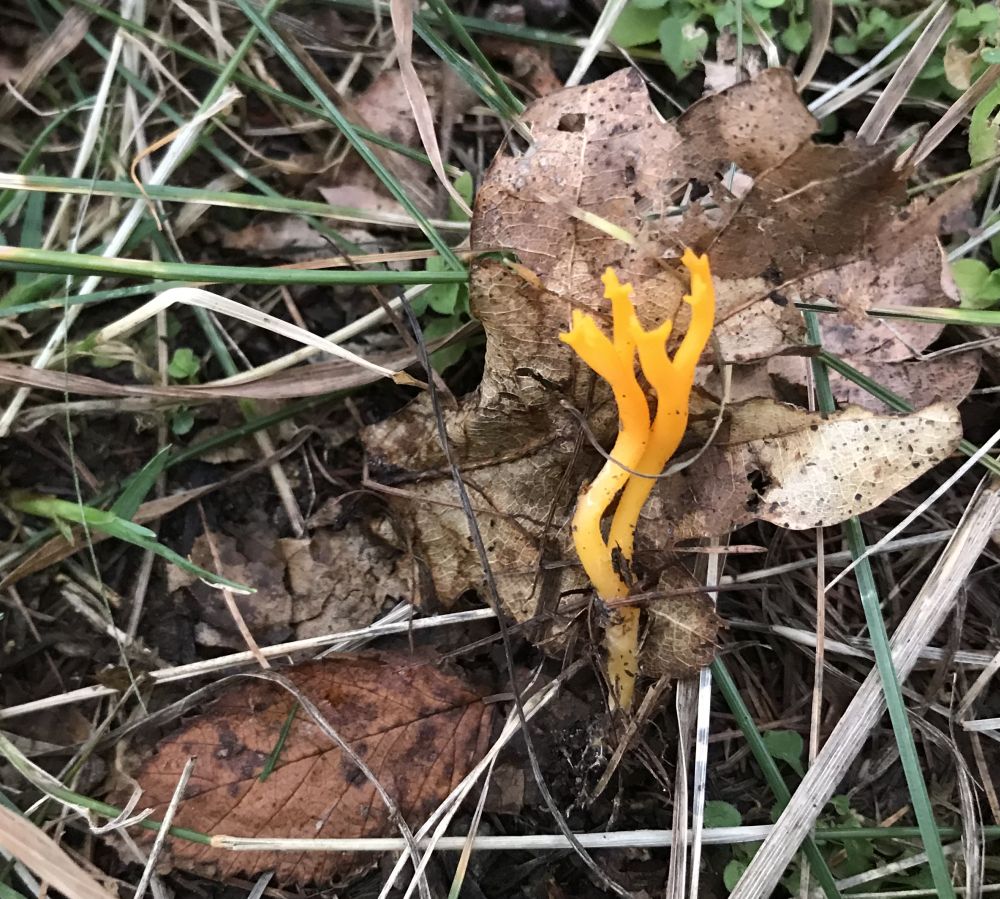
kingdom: Fungi
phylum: Basidiomycota
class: Dacrymycetes
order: Dacrymycetales
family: Dacrymycetaceae
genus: Calocera
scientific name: Calocera viscosa
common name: almindelig guldgaffel
